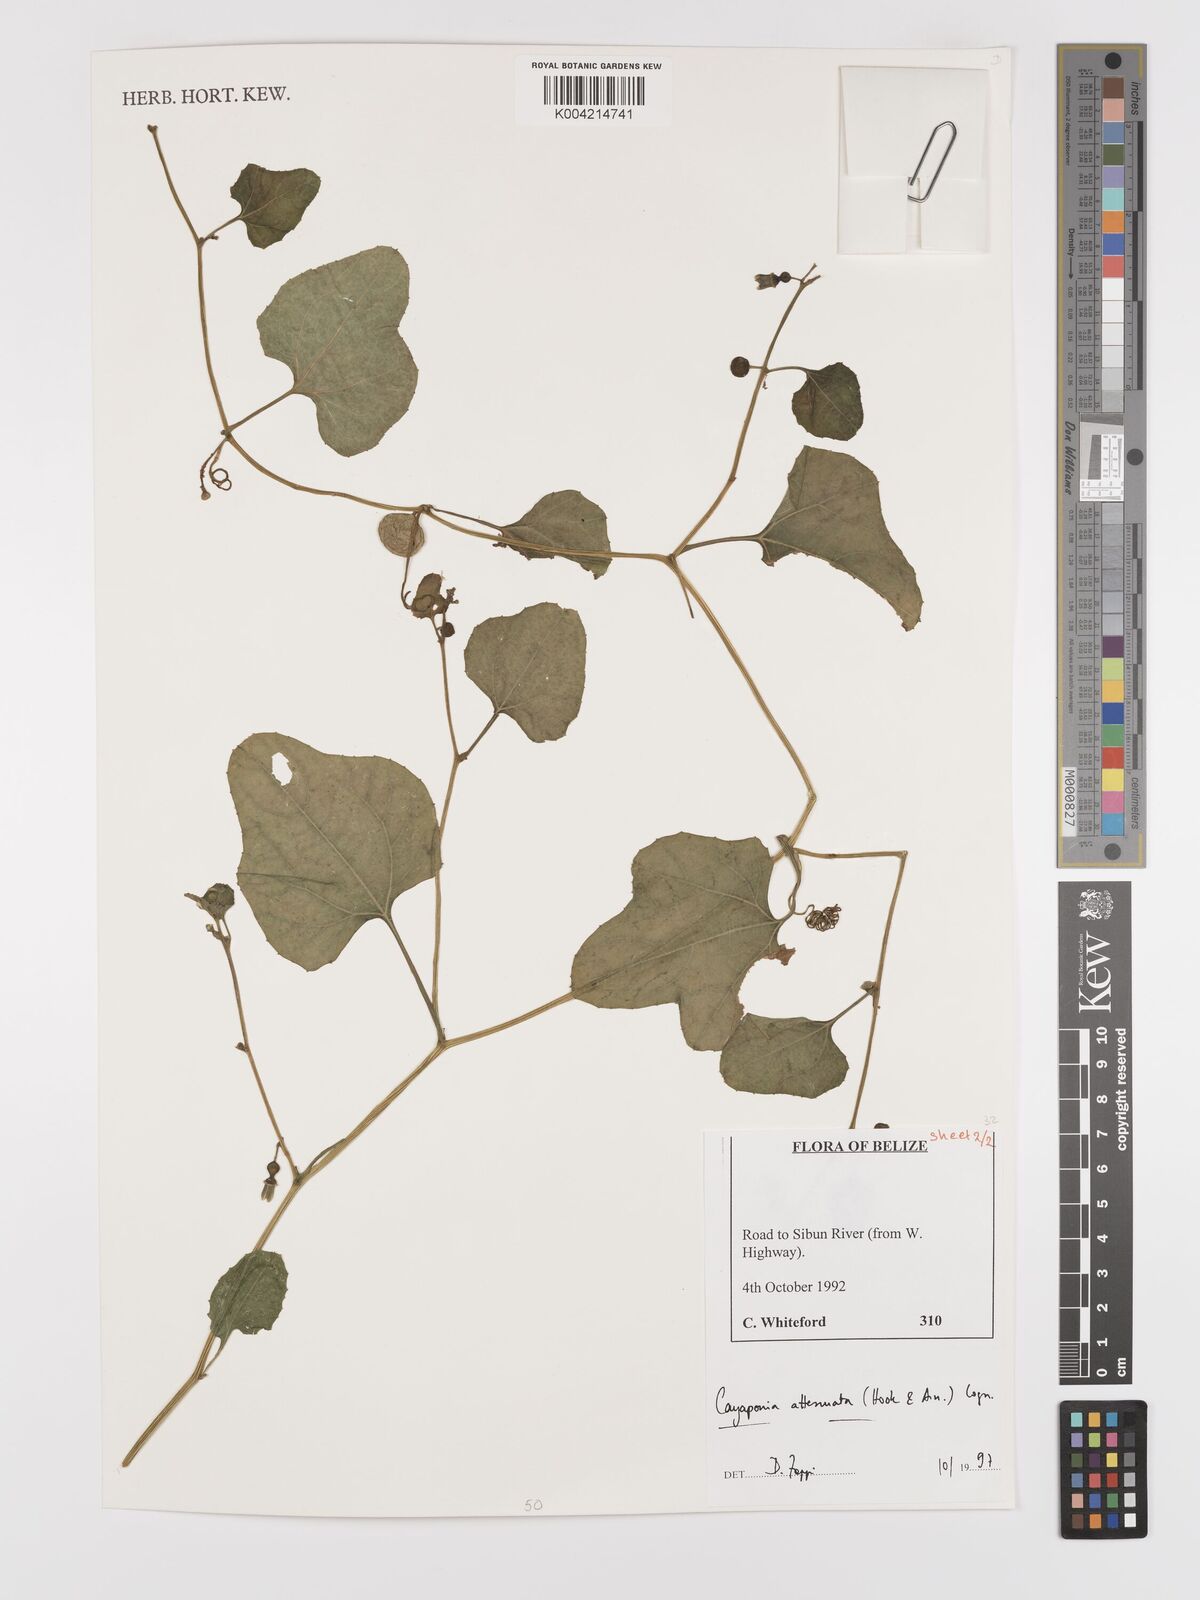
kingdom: Plantae
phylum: Tracheophyta
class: Magnoliopsida
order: Cucurbitales
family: Cucurbitaceae
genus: Cayaponia
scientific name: Cayaponia attenuata
